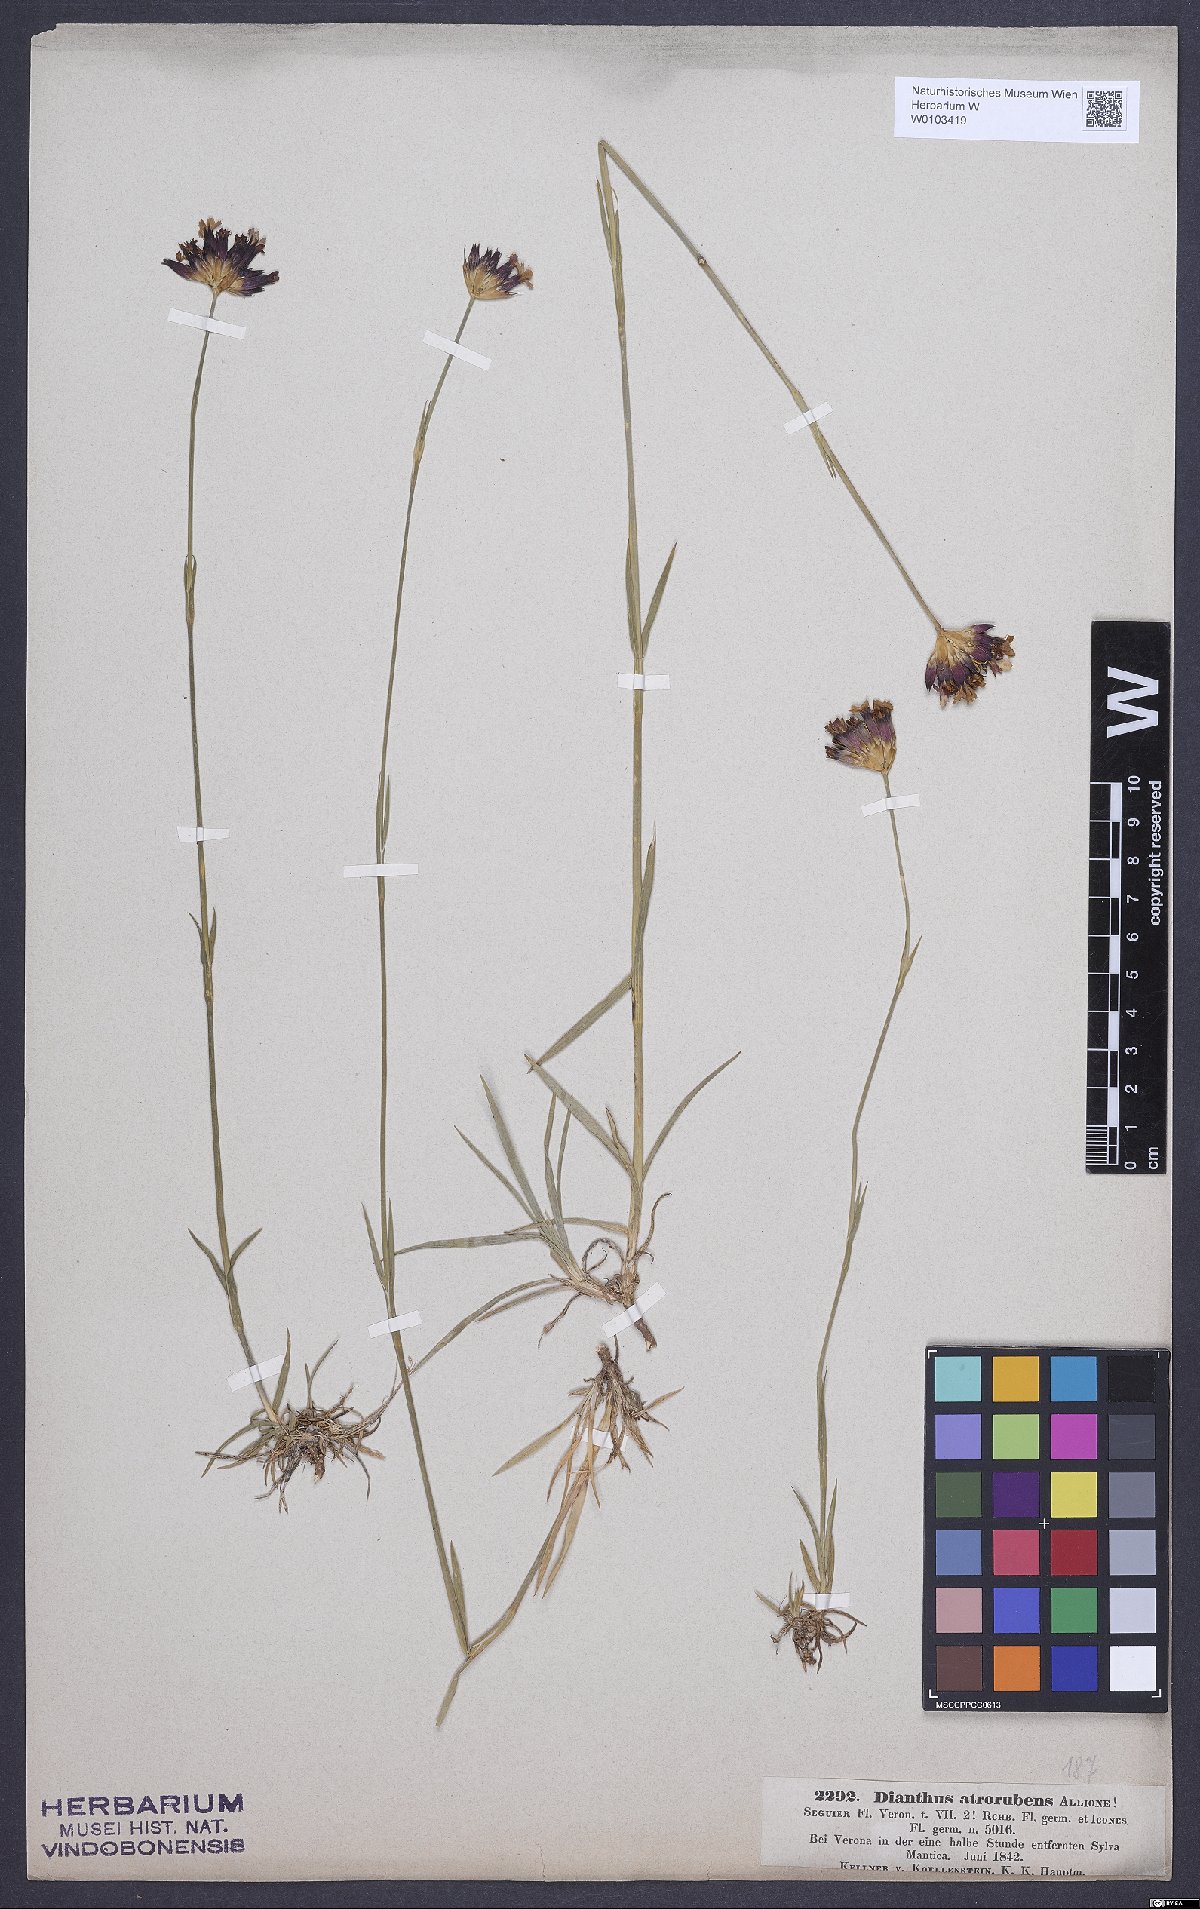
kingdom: Plantae
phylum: Tracheophyta
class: Magnoliopsida
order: Caryophyllales
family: Caryophyllaceae
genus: Dianthus
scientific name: Dianthus carthusianorum
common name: Carthusian pink
